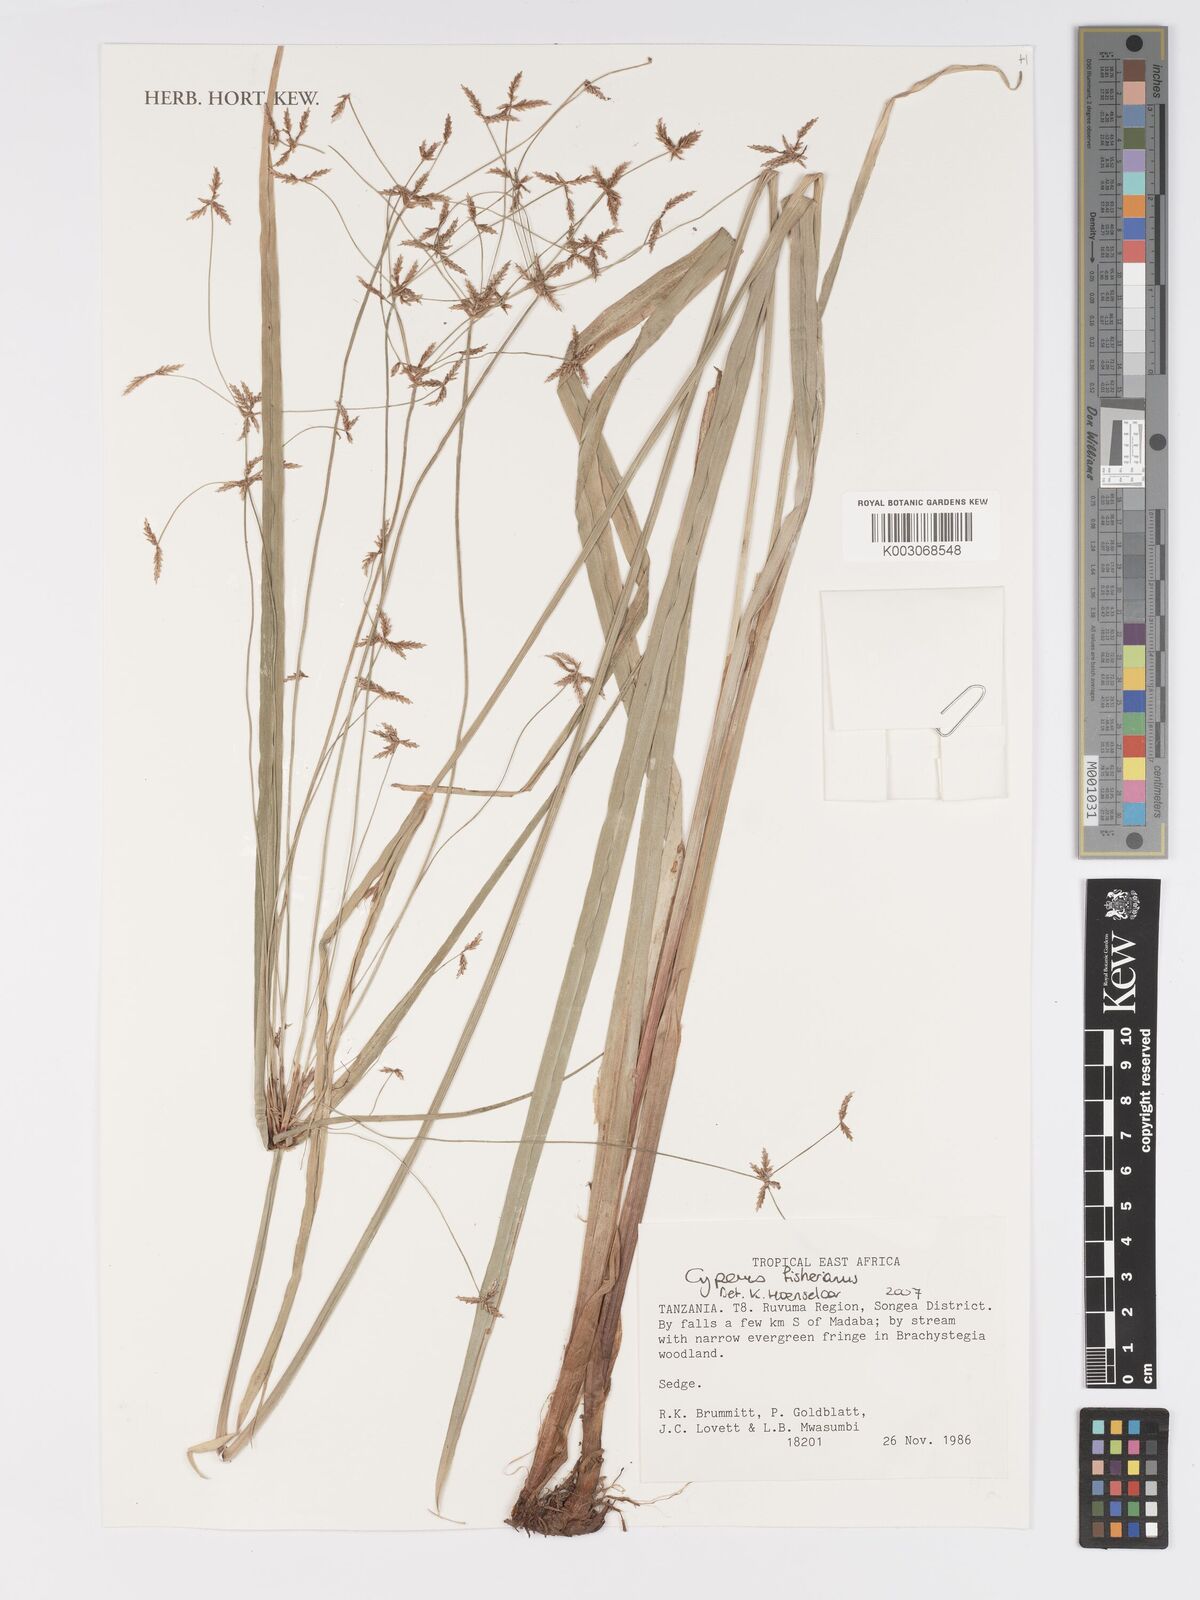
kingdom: Plantae
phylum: Tracheophyta
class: Liliopsida
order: Poales
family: Cyperaceae
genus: Cyperus
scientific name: Cyperus fischerianus
